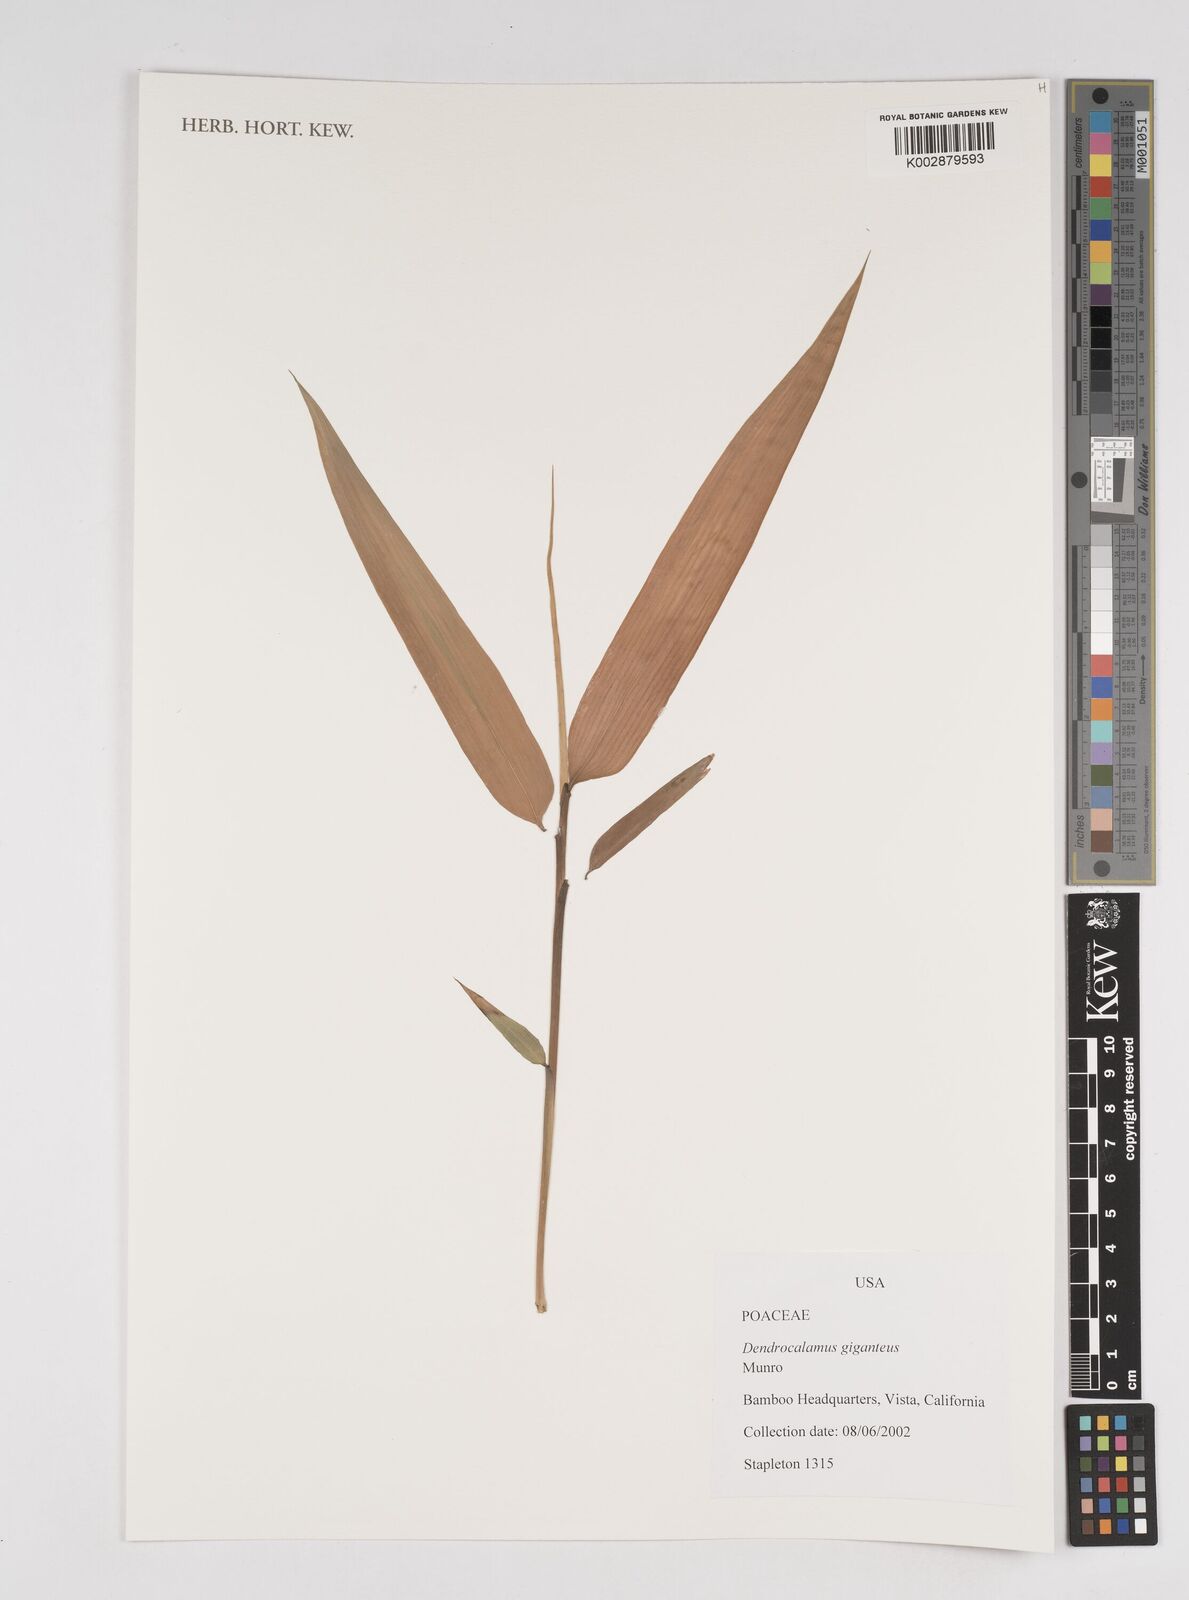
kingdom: Plantae
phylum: Tracheophyta
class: Liliopsida
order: Poales
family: Poaceae
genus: Dendrocalamus
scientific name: Dendrocalamus giganteus
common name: Giant bamboo
